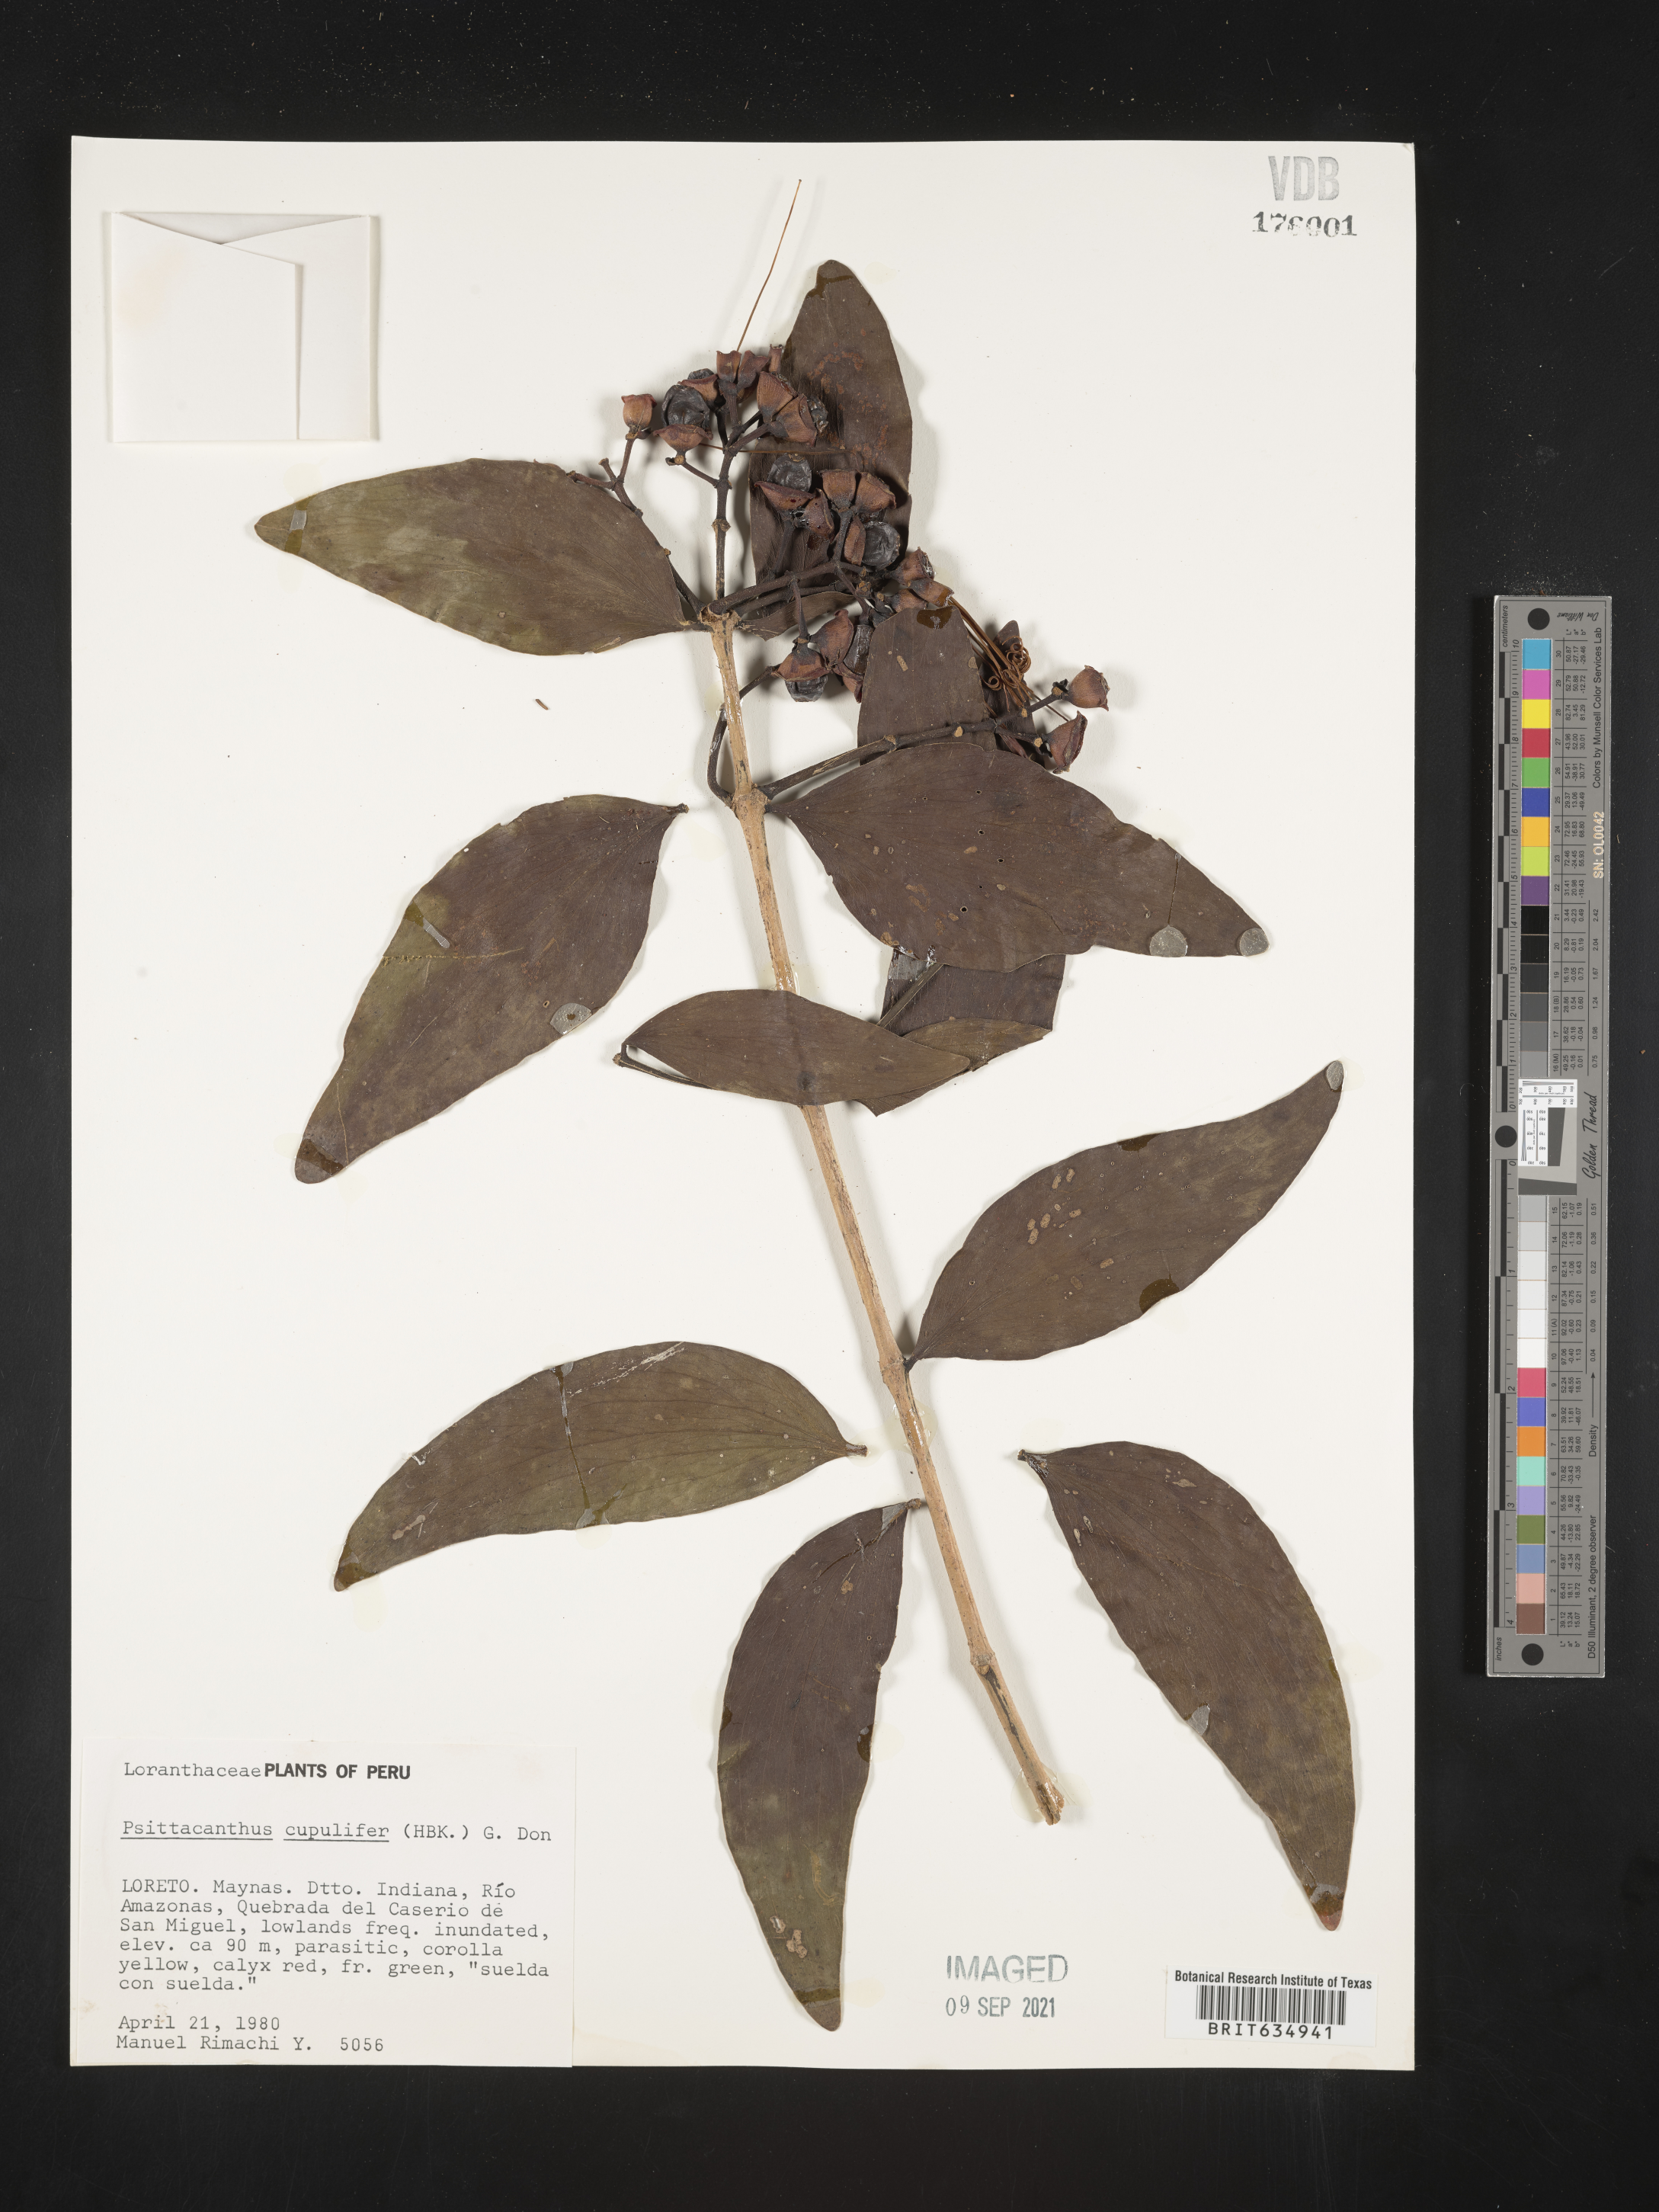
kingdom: Plantae
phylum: Tracheophyta
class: Magnoliopsida
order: Santalales
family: Loranthaceae
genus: Psittacanthus
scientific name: Psittacanthus
